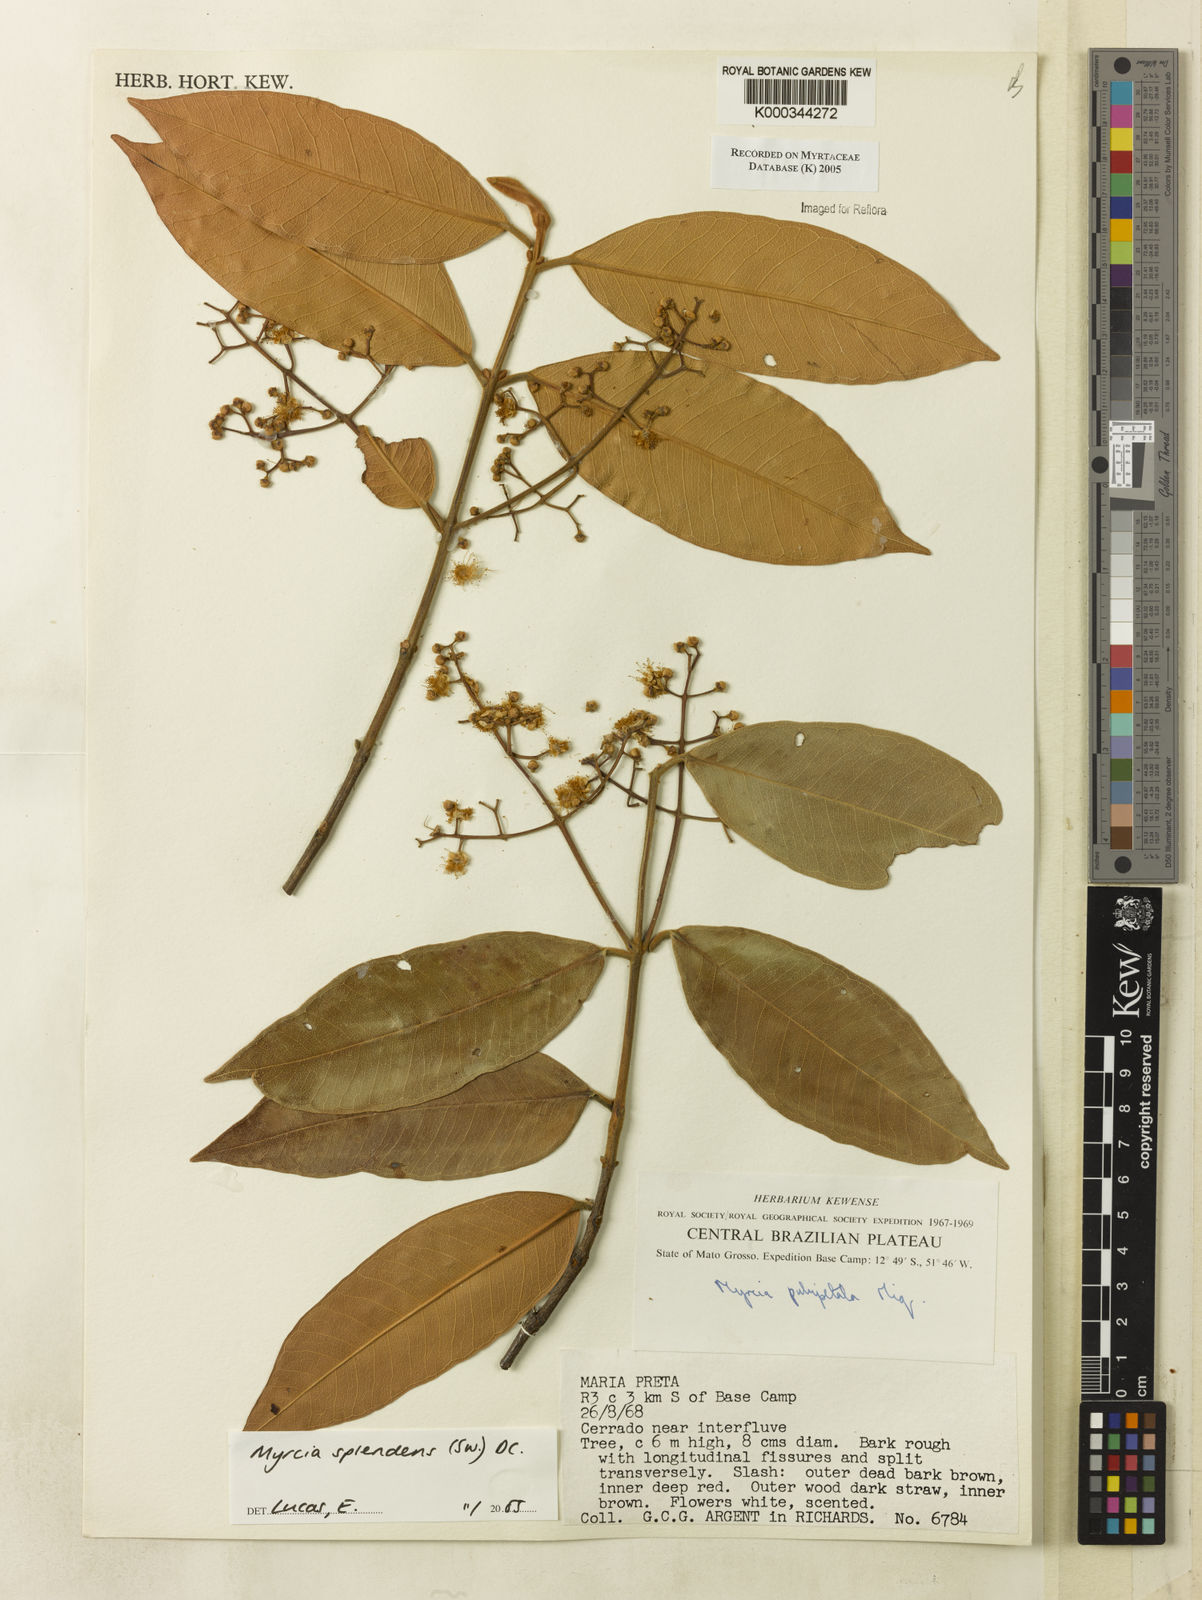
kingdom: Plantae
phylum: Tracheophyta
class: Magnoliopsida
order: Myrtales
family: Myrtaceae
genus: Myrcia
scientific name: Myrcia splendens
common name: Surinam cherry
